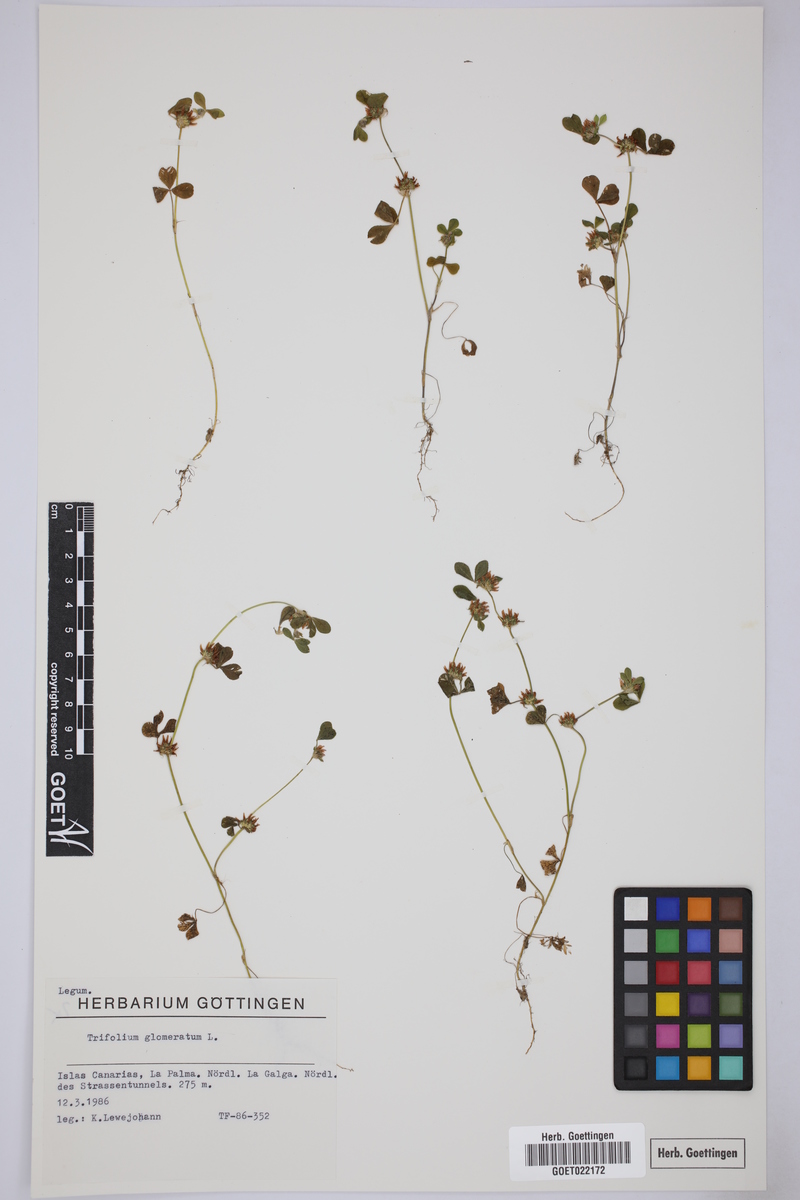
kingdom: Plantae
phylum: Tracheophyta
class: Magnoliopsida
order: Fabales
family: Fabaceae
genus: Trifolium
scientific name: Trifolium glomeratum
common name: Clustered clover
